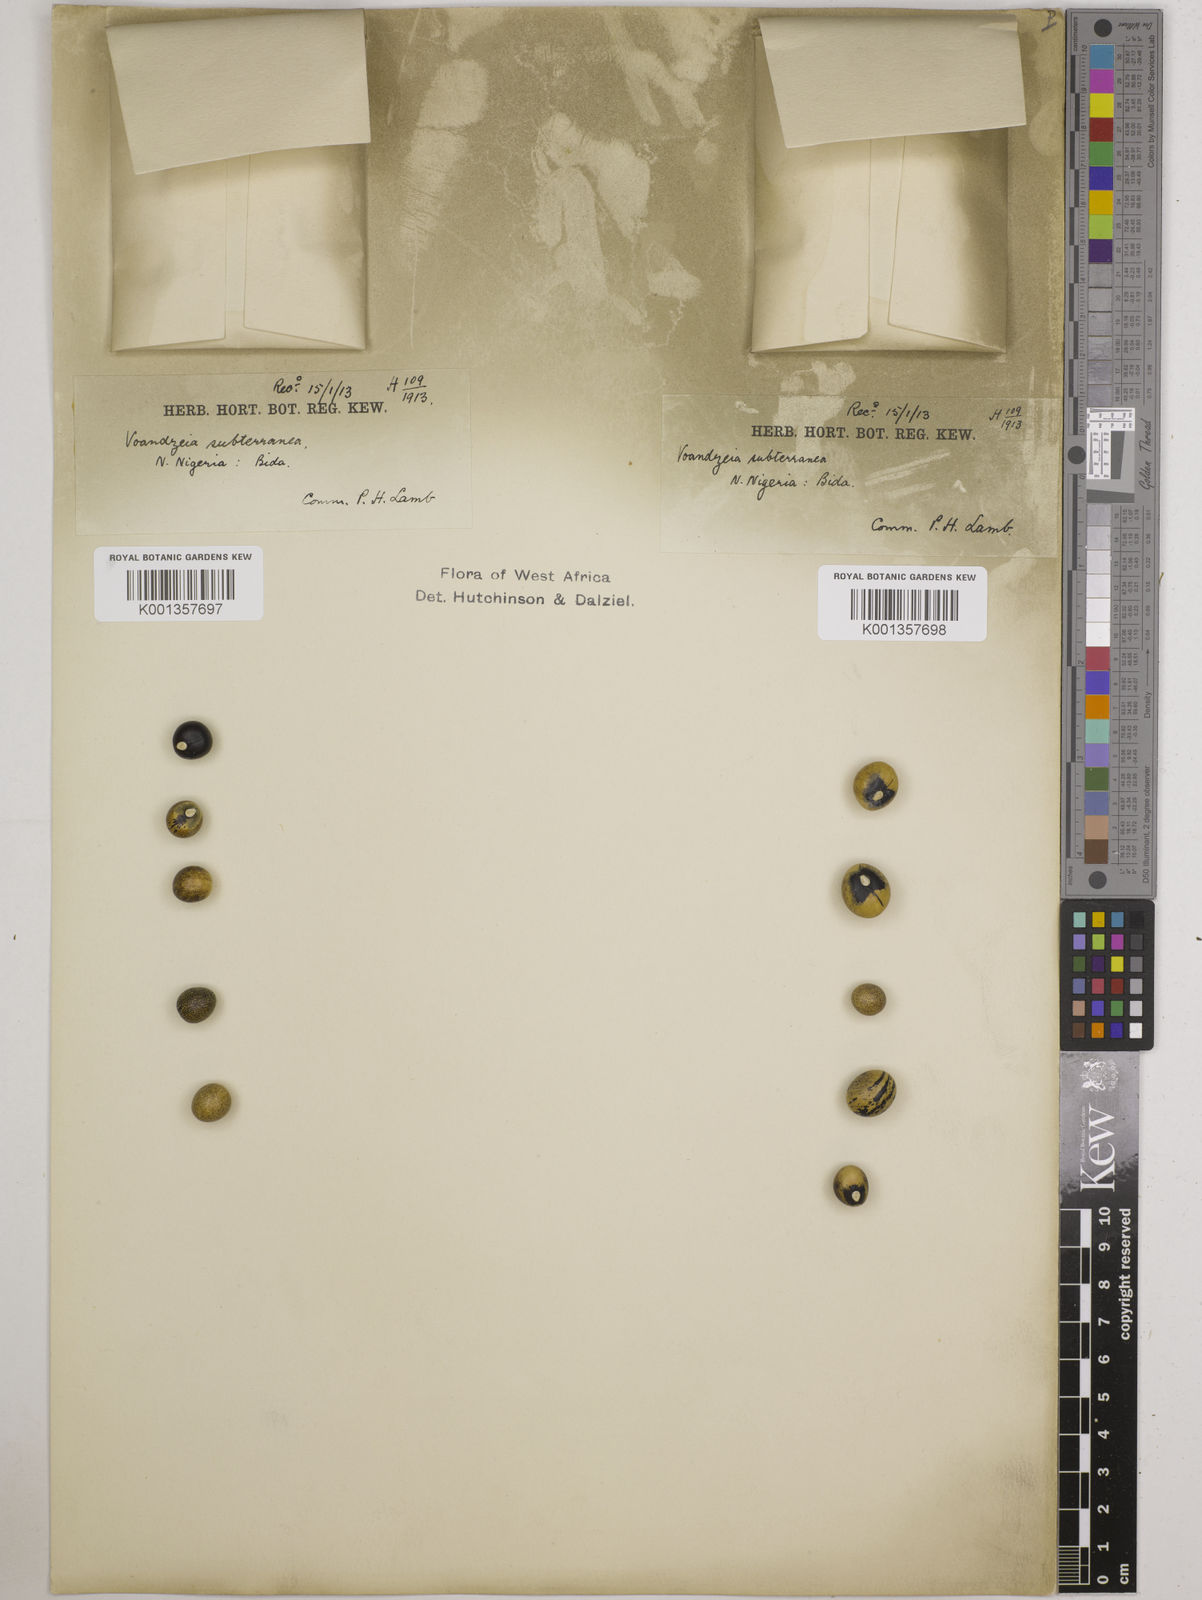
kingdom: Plantae
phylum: Tracheophyta
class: Magnoliopsida
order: Fabales
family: Fabaceae
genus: Vigna
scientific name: Vigna
